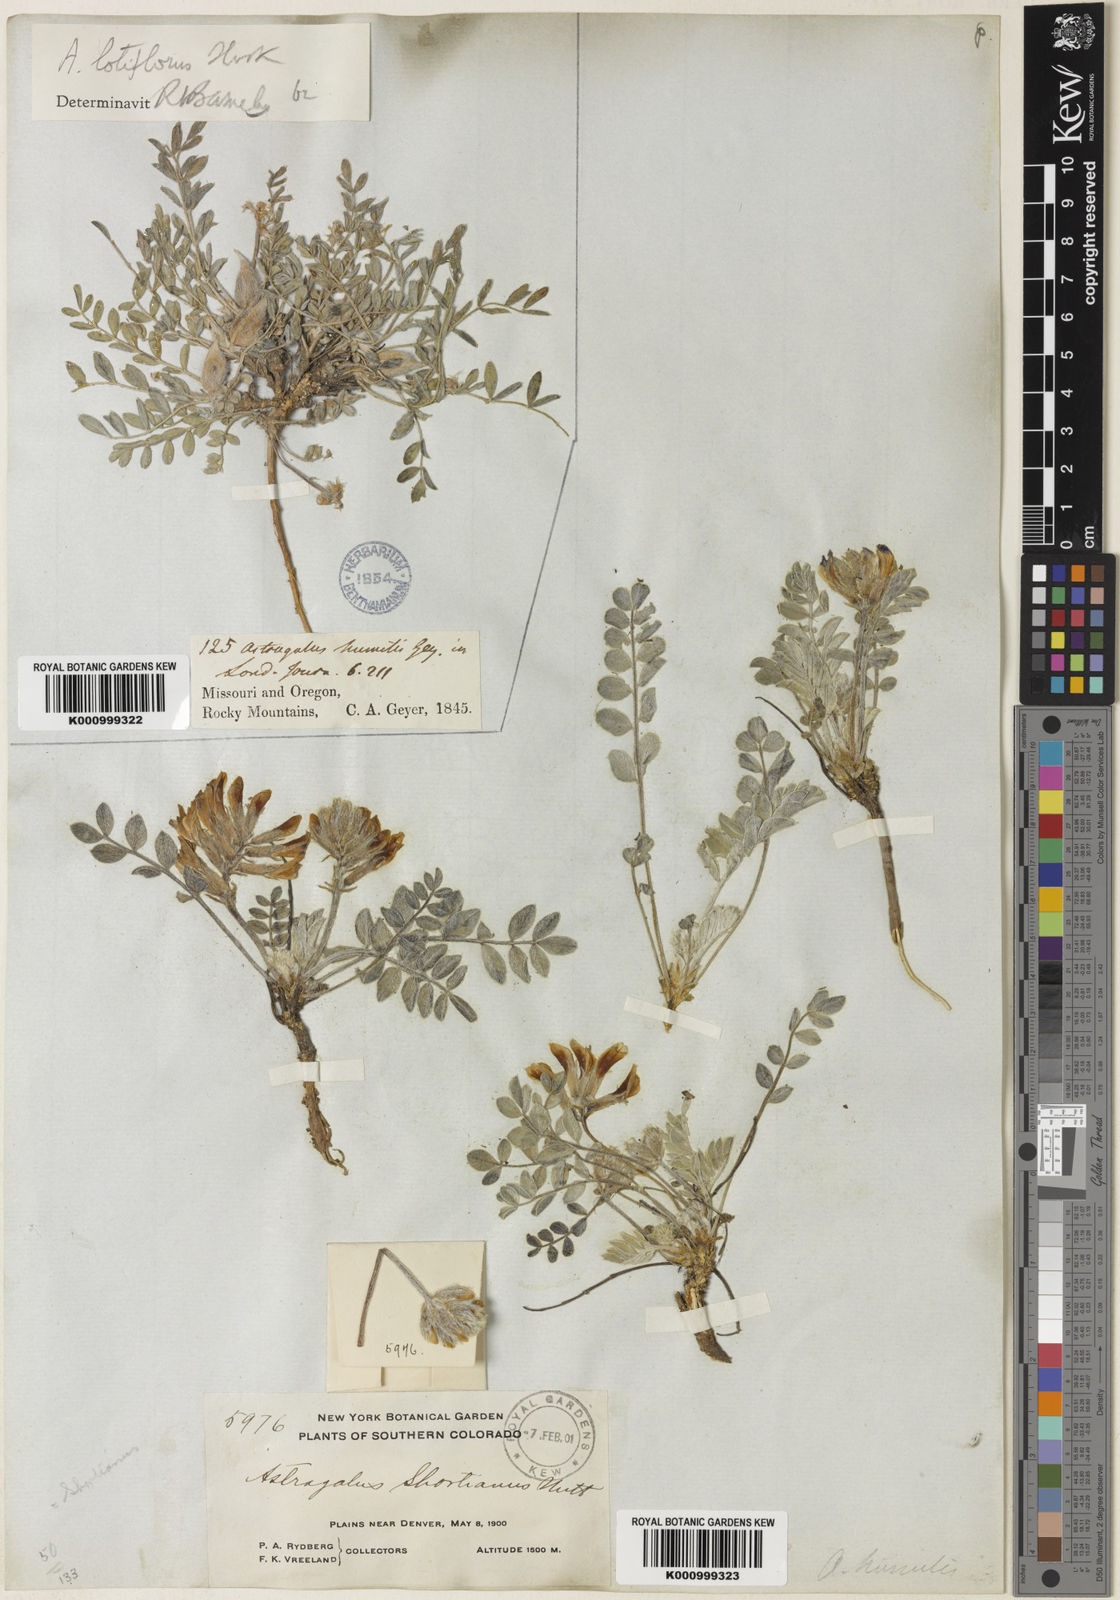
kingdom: Plantae
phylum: Tracheophyta
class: Magnoliopsida
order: Fabales
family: Fabaceae
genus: Astragalus
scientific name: Astragalus shortianus
